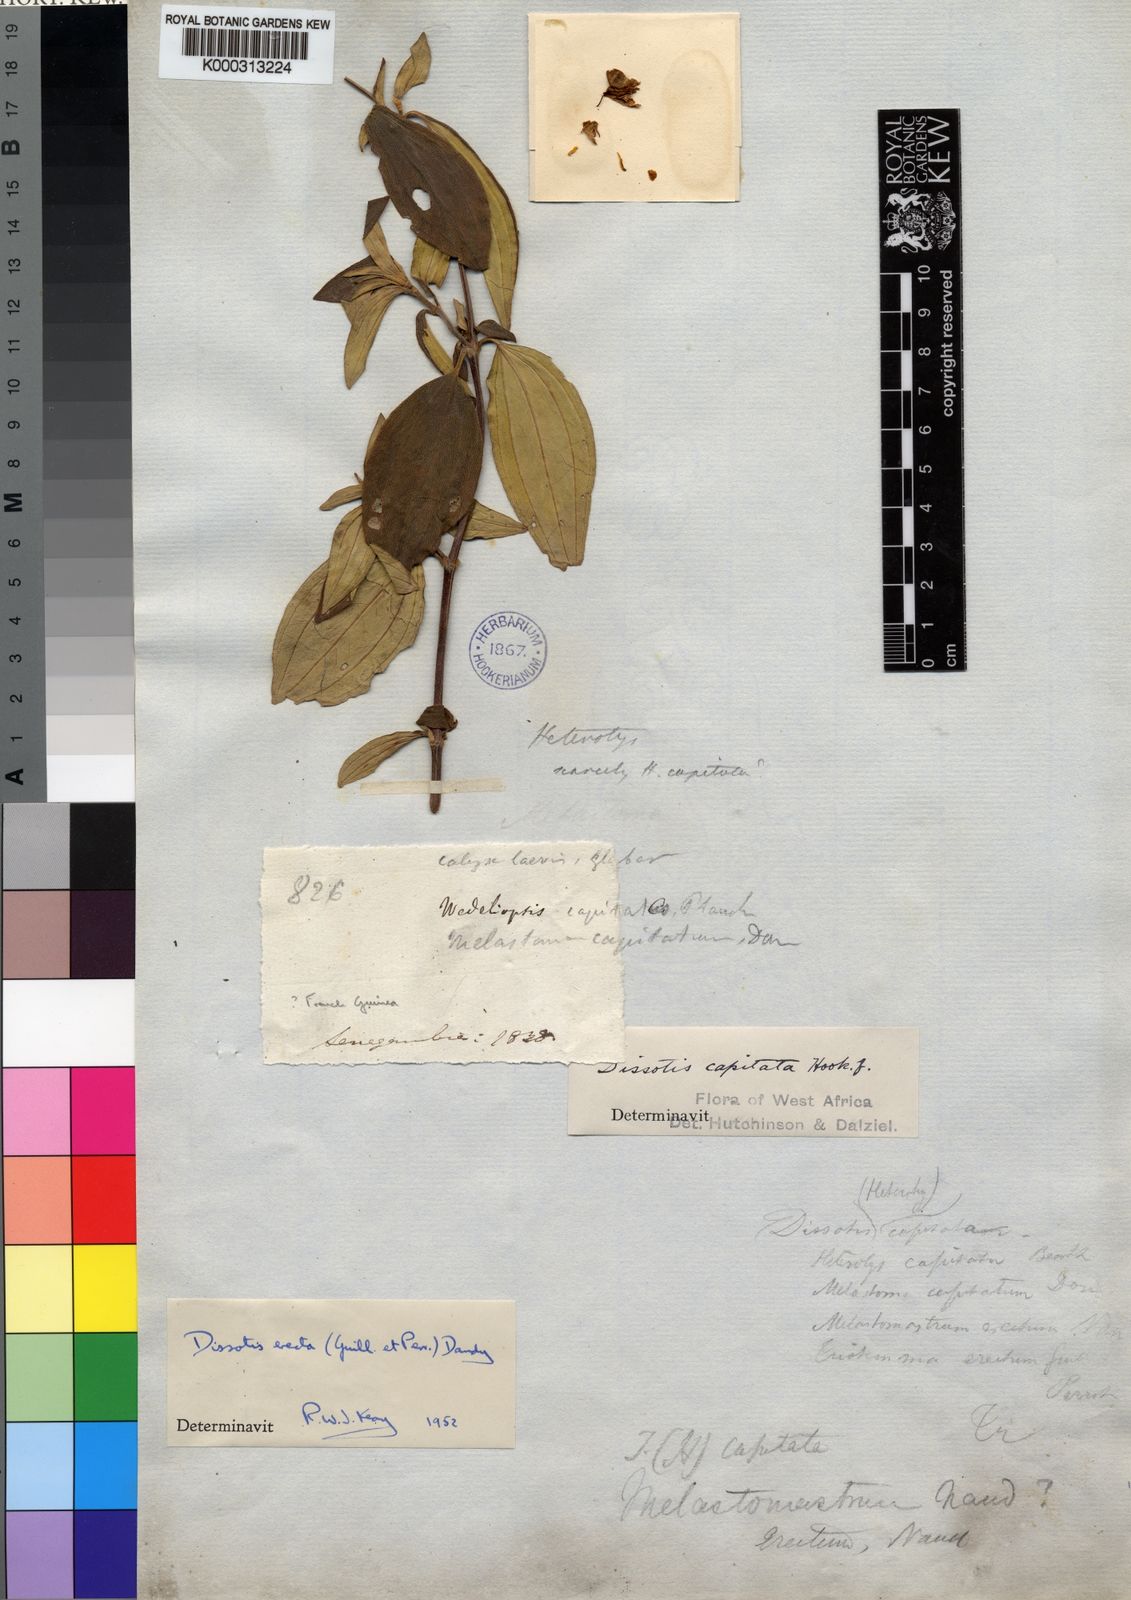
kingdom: Plantae
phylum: Tracheophyta
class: Magnoliopsida
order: Myrtales
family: Melastomataceae
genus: Melastomastrum
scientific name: Melastomastrum capitatum
